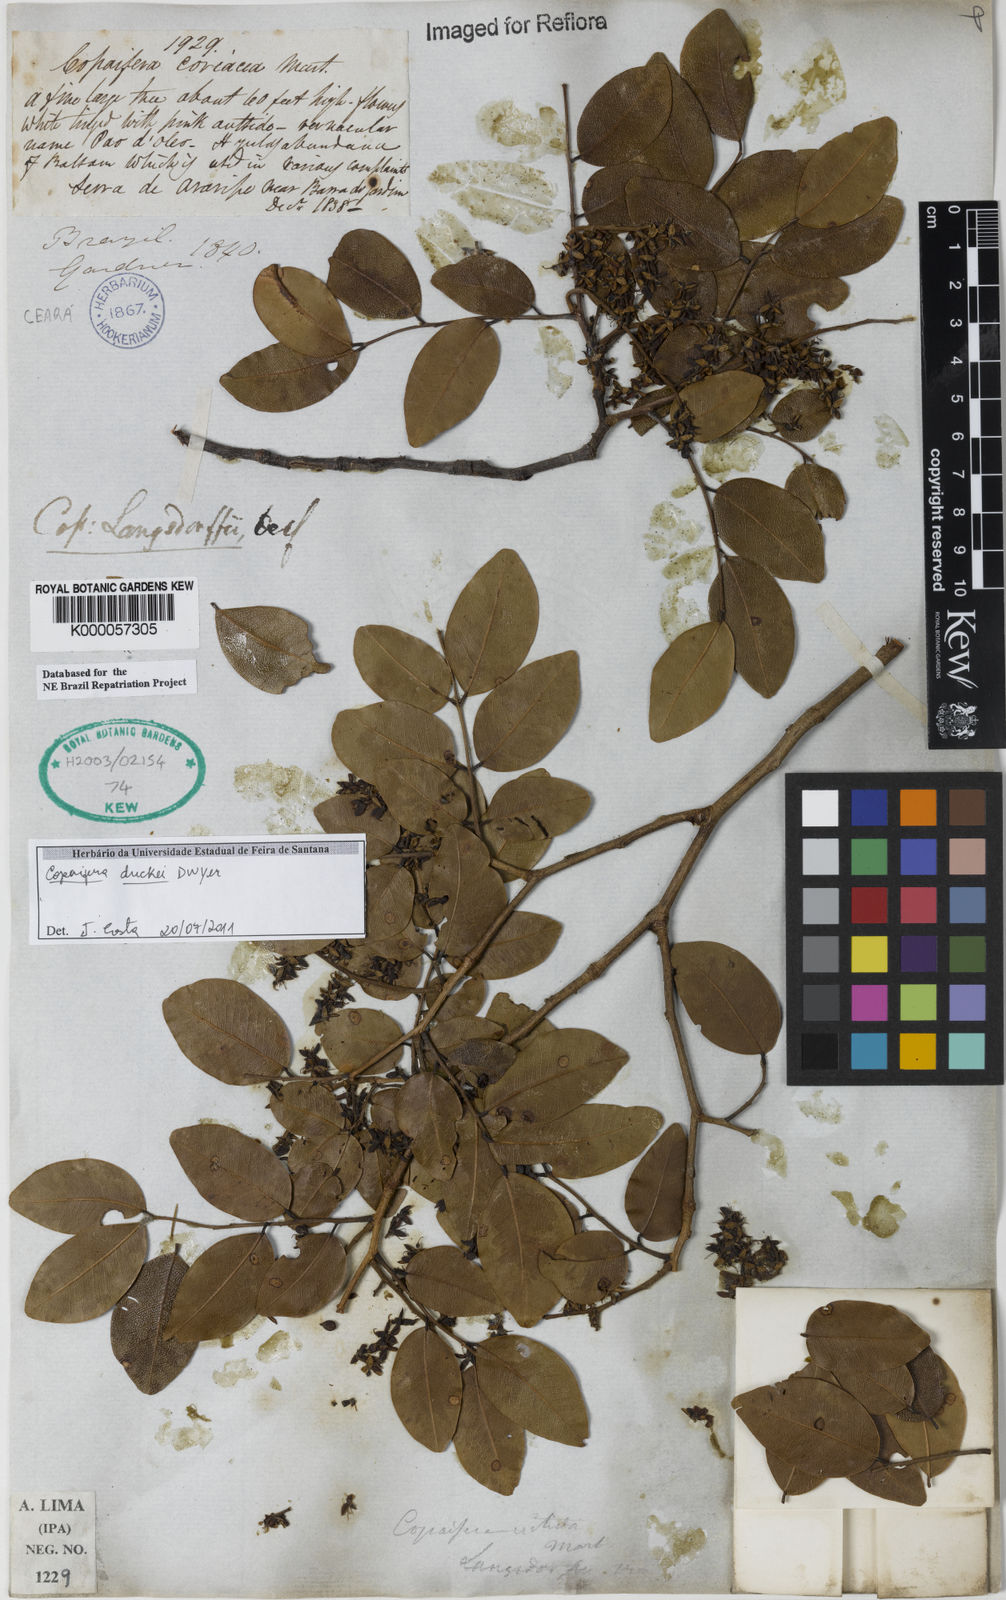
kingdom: Plantae
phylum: Tracheophyta
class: Magnoliopsida
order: Fabales
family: Fabaceae
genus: Copaifera
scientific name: Copaifera duckei
